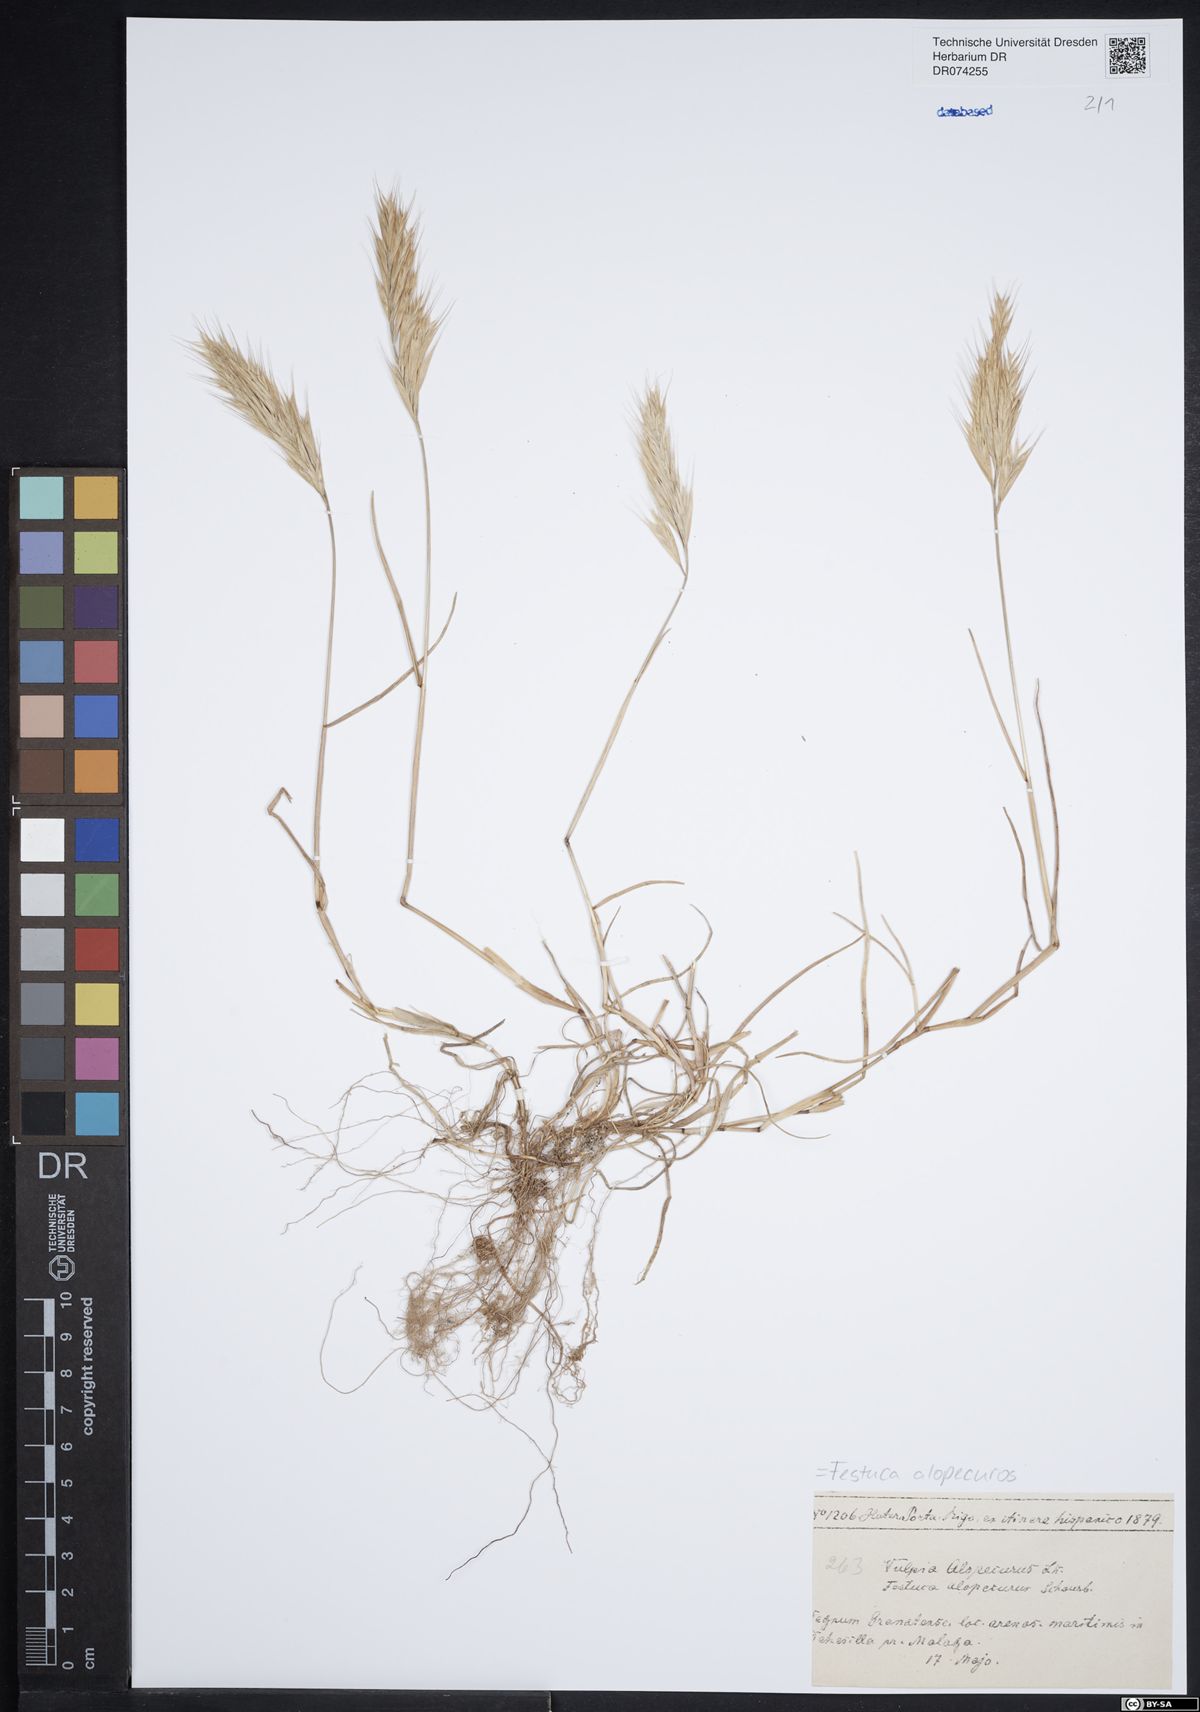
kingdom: Plantae
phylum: Tracheophyta
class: Liliopsida
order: Poales
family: Poaceae
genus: Festuca
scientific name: Festuca alopecuros
